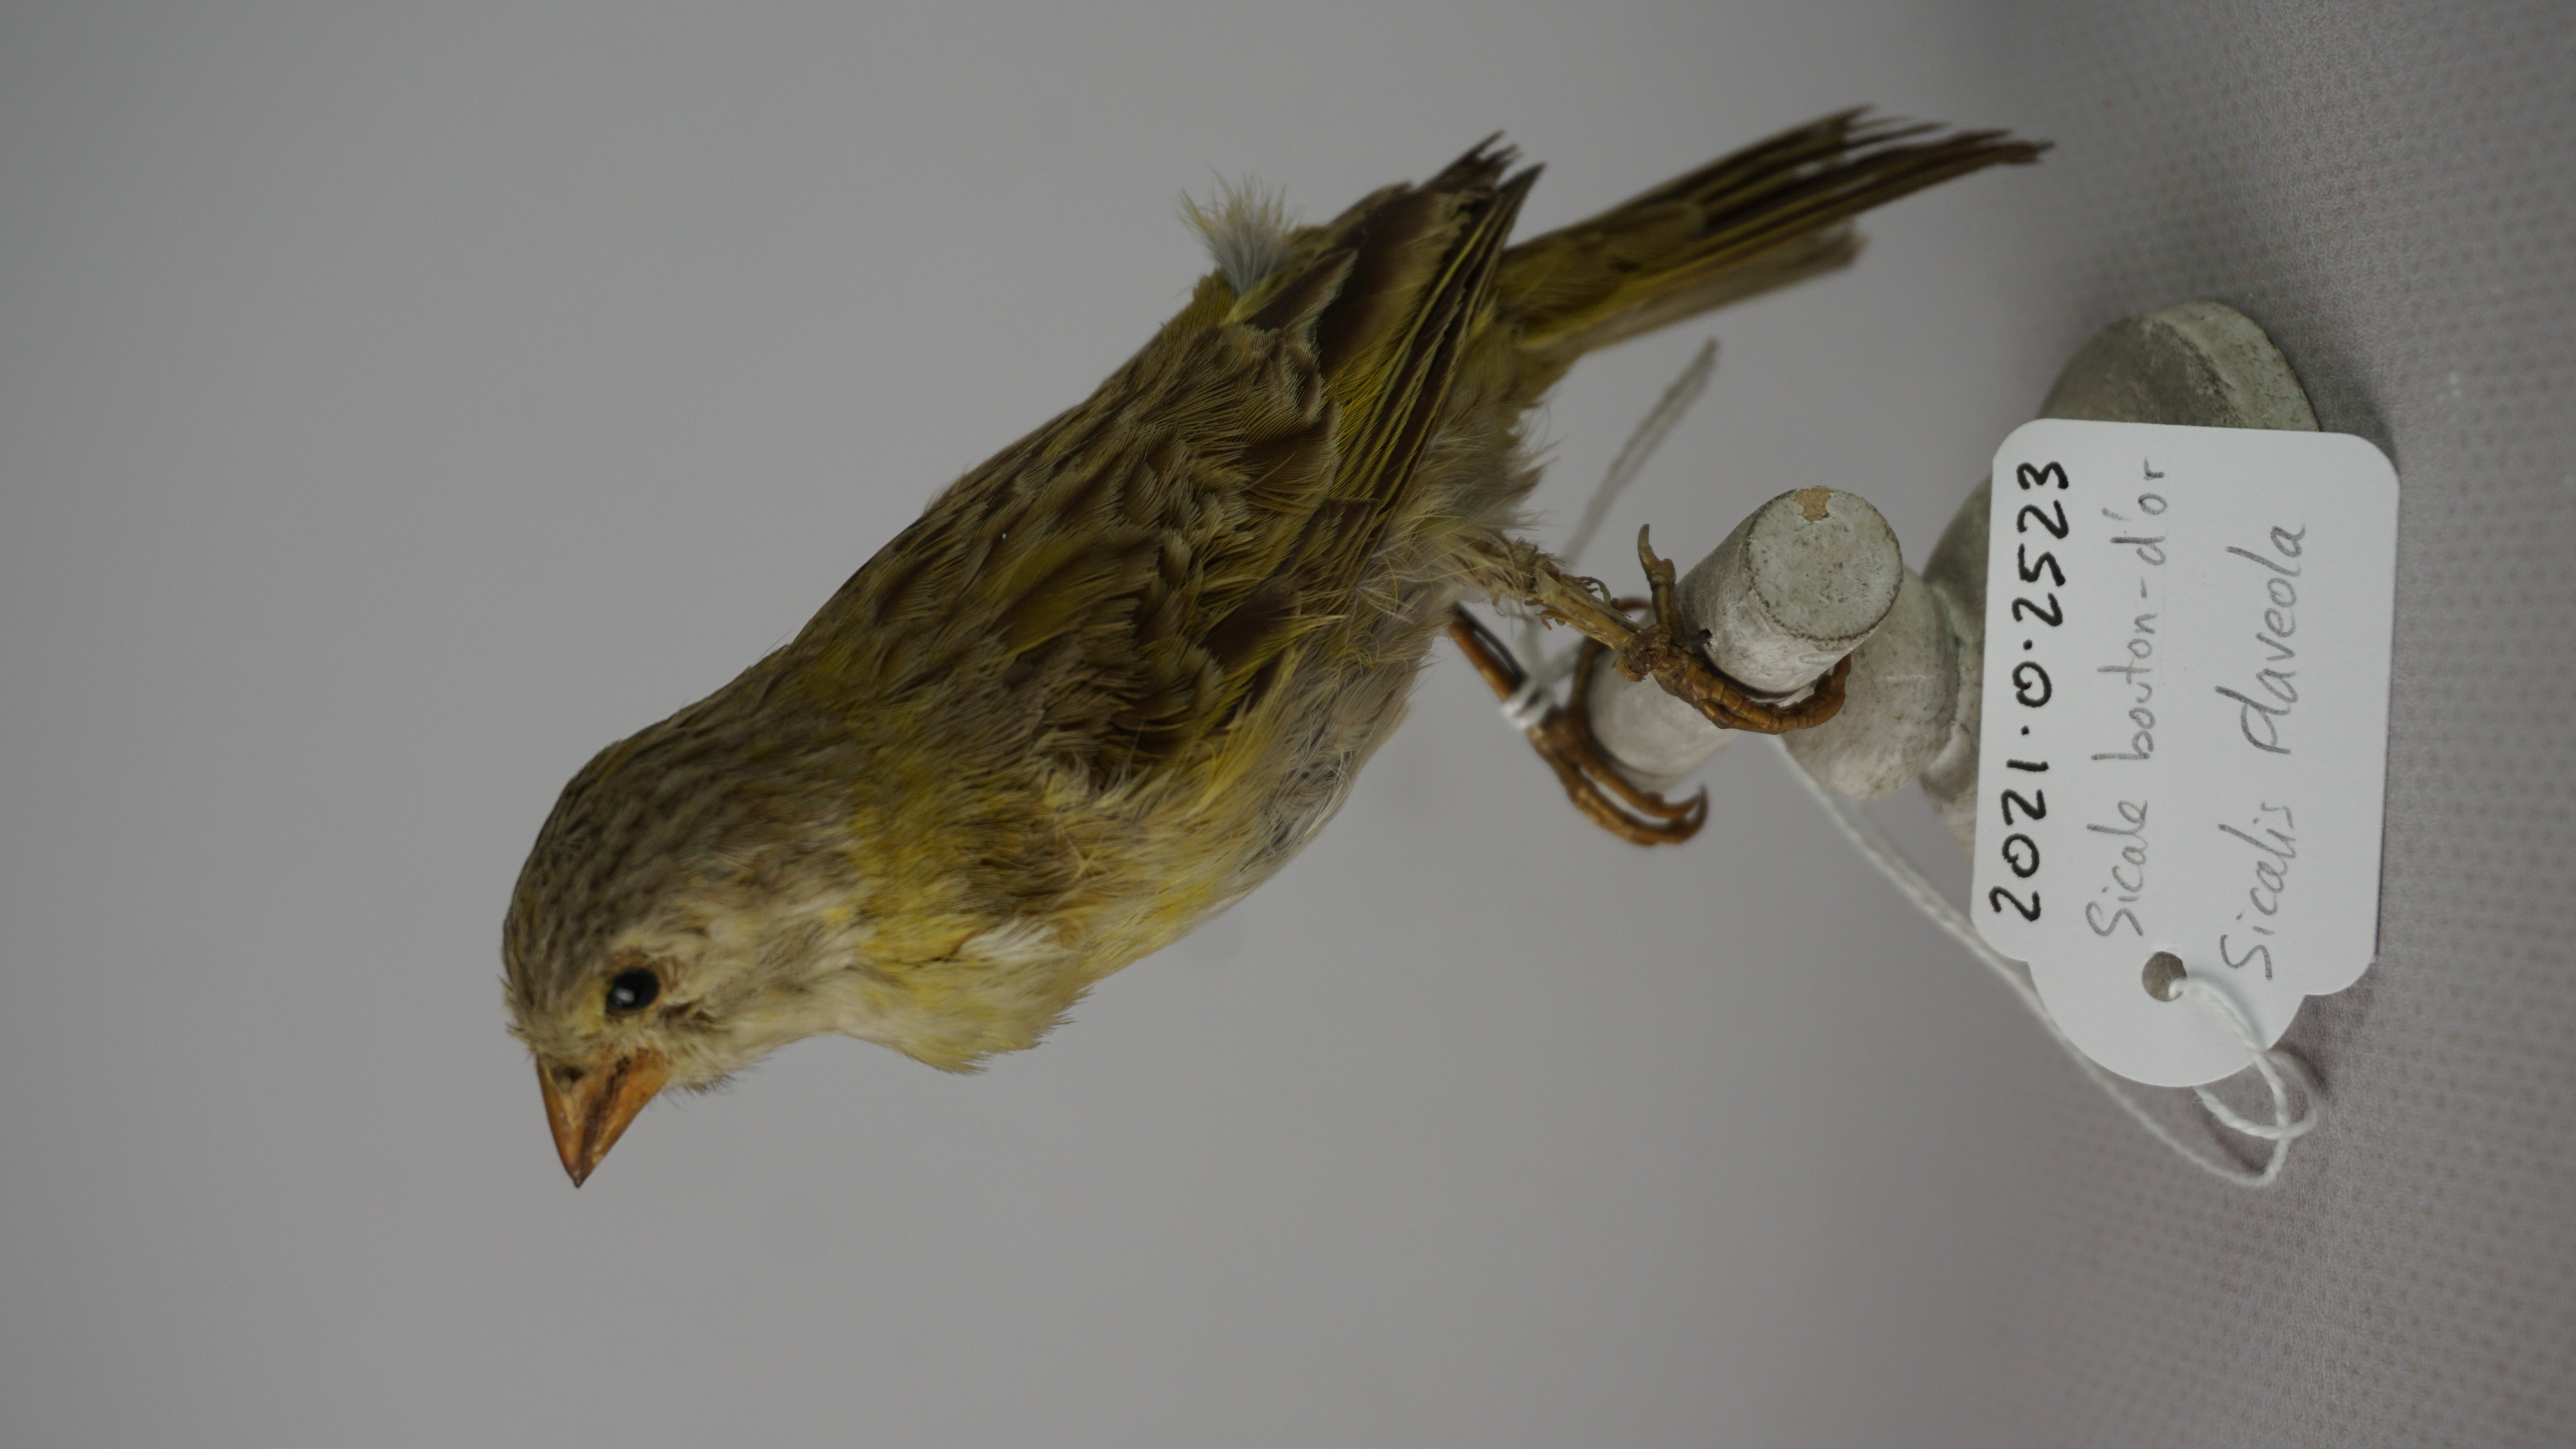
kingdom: Animalia
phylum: Chordata
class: Aves
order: Passeriformes
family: Thraupidae
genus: Sicalis
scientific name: Sicalis flaveola
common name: Saffron finch
